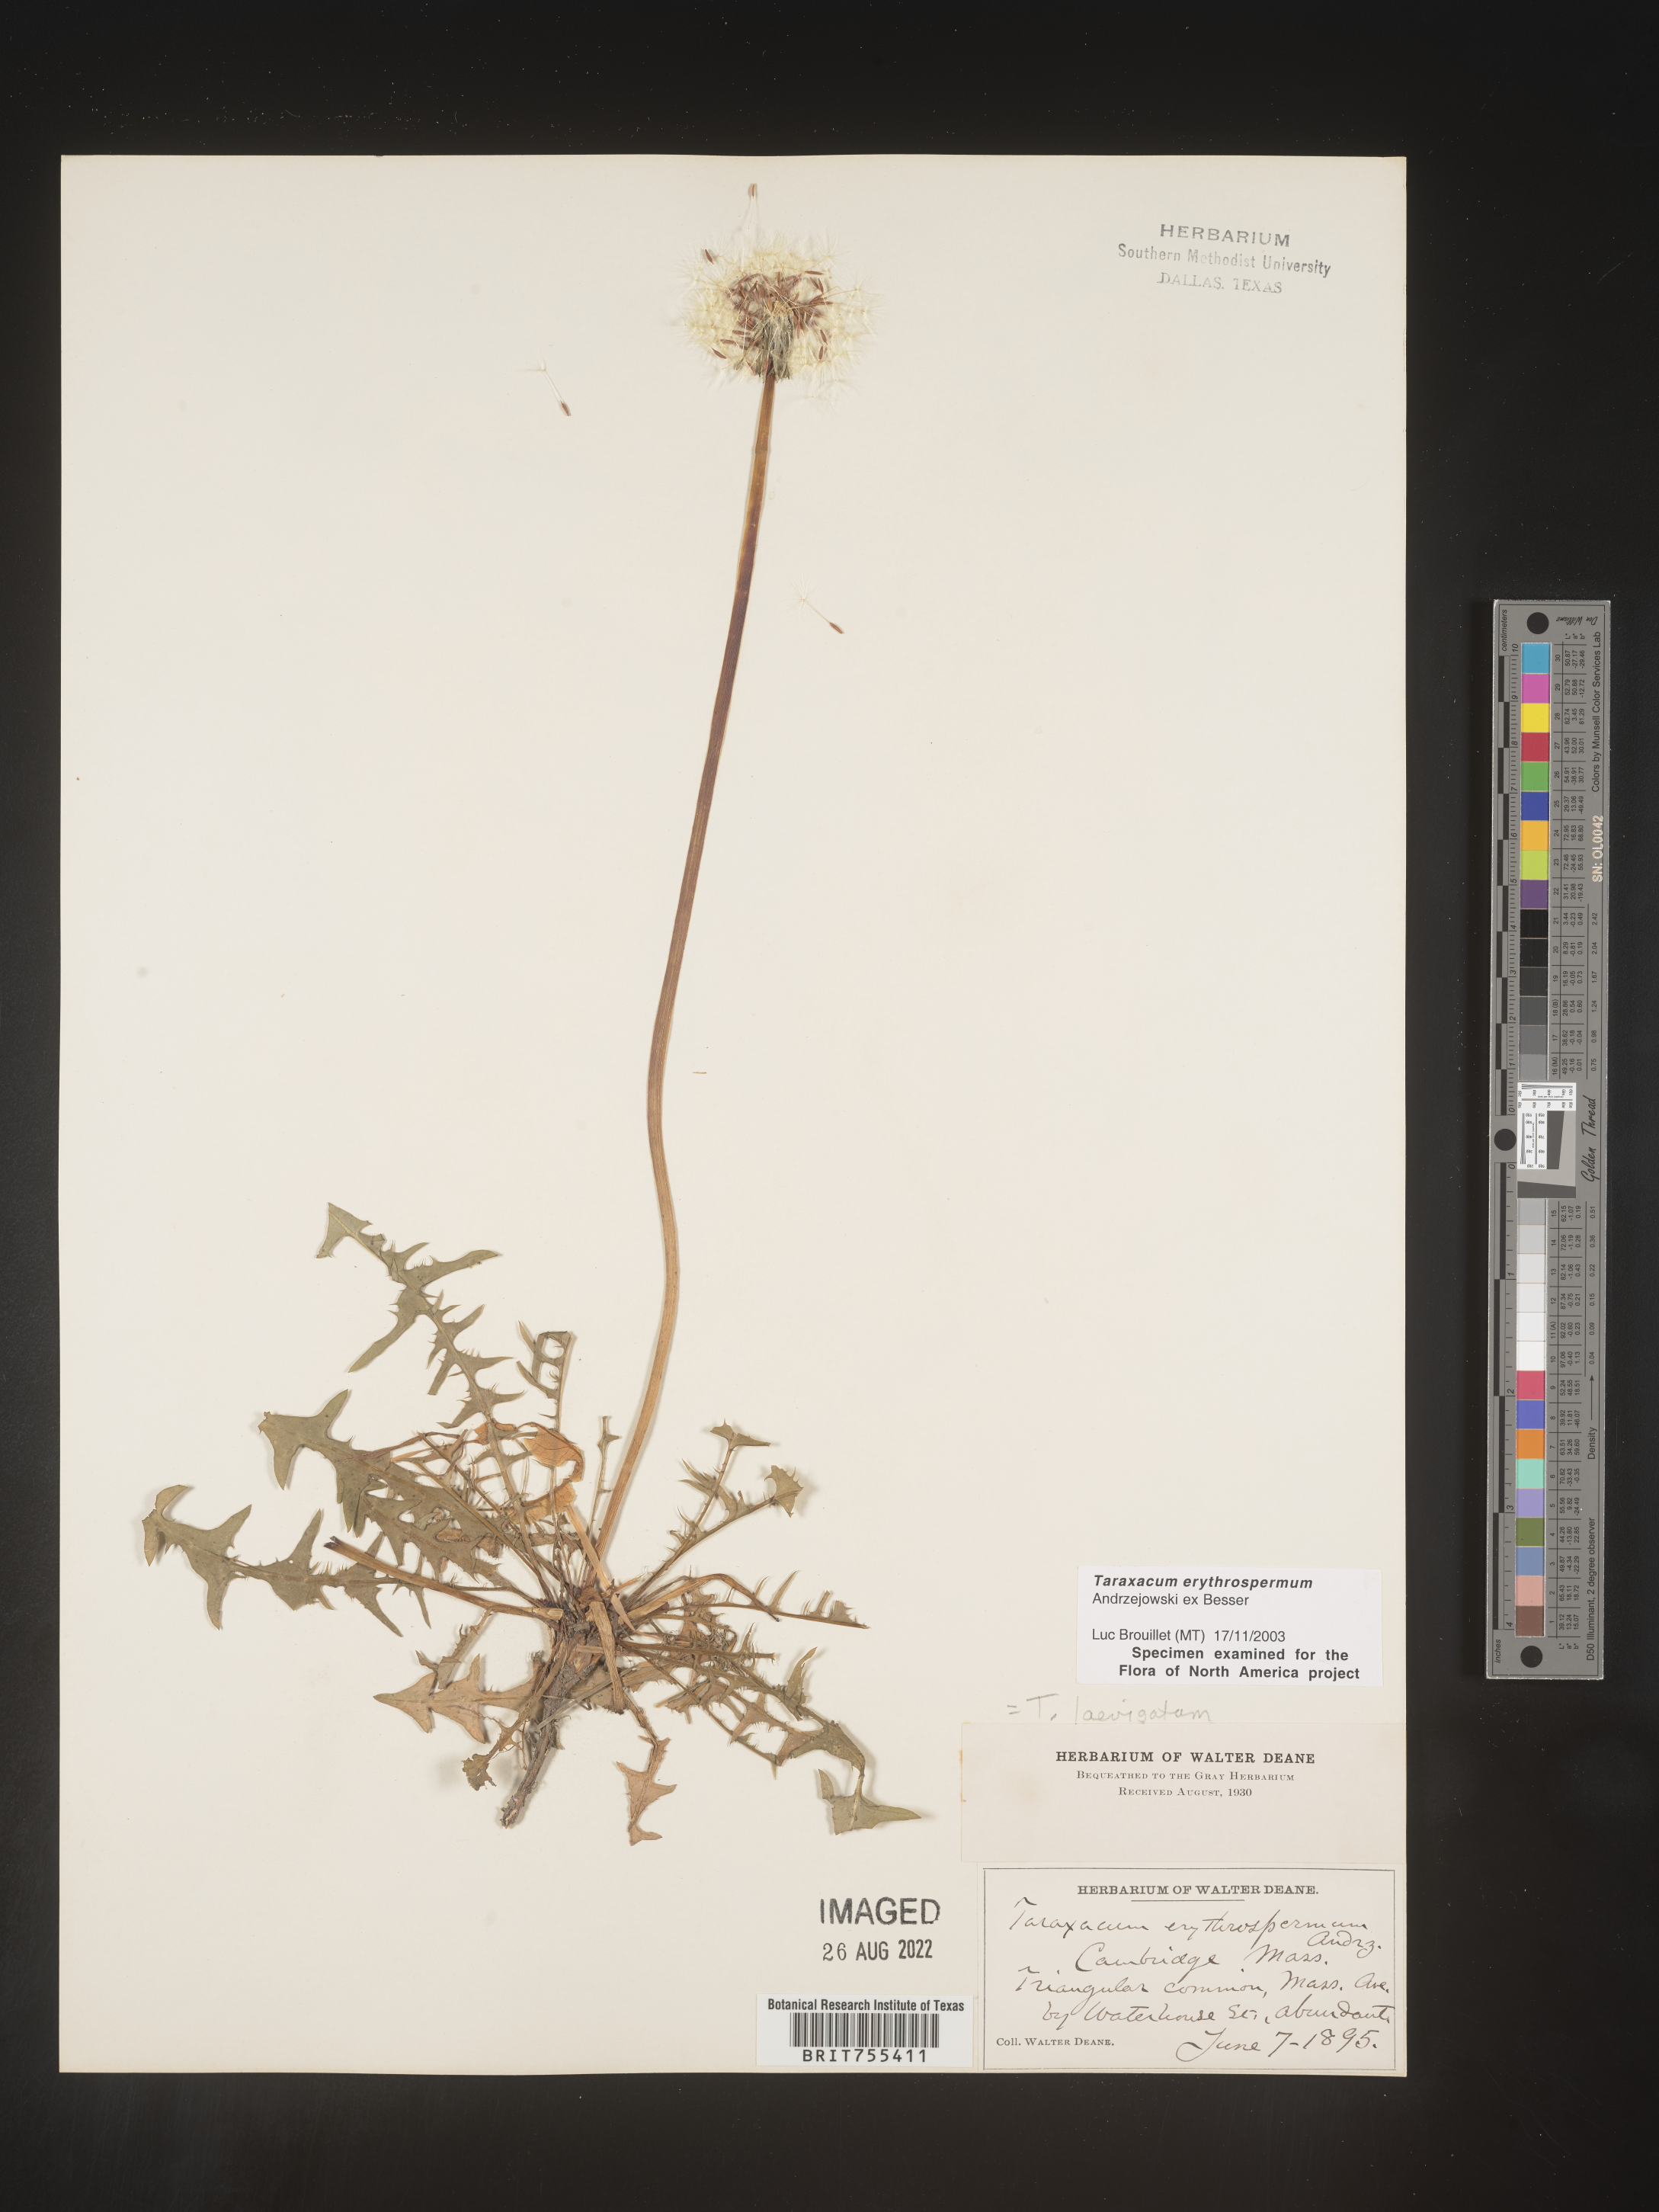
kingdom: Plantae
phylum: Tracheophyta
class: Magnoliopsida
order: Asterales
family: Asteraceae
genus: Taraxacum
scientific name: Taraxacum erythrospermum
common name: Rock dandelion
